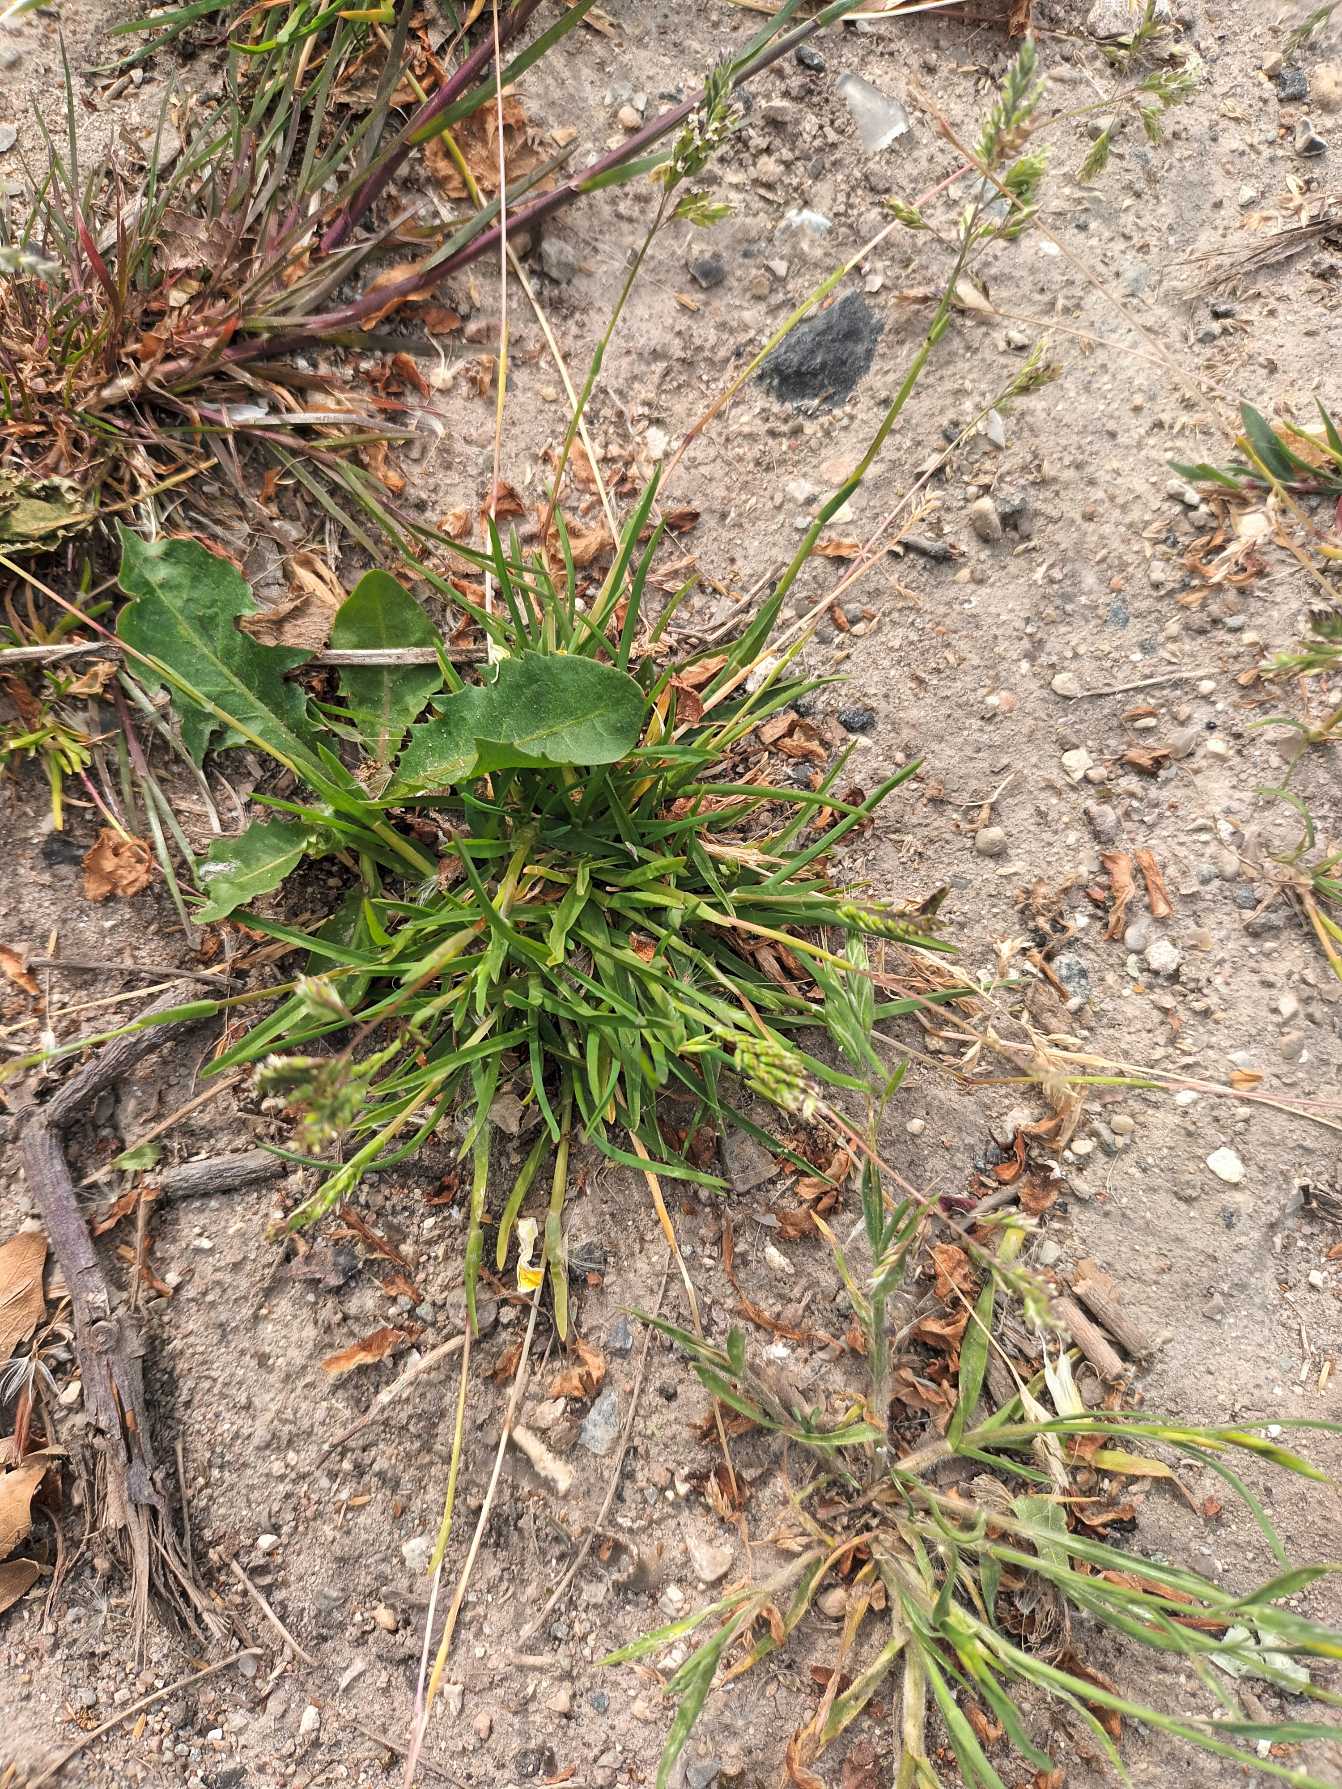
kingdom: Plantae
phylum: Tracheophyta
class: Liliopsida
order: Poales
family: Poaceae
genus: Poa
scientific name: Poa annua
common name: Enårig rapgræs
